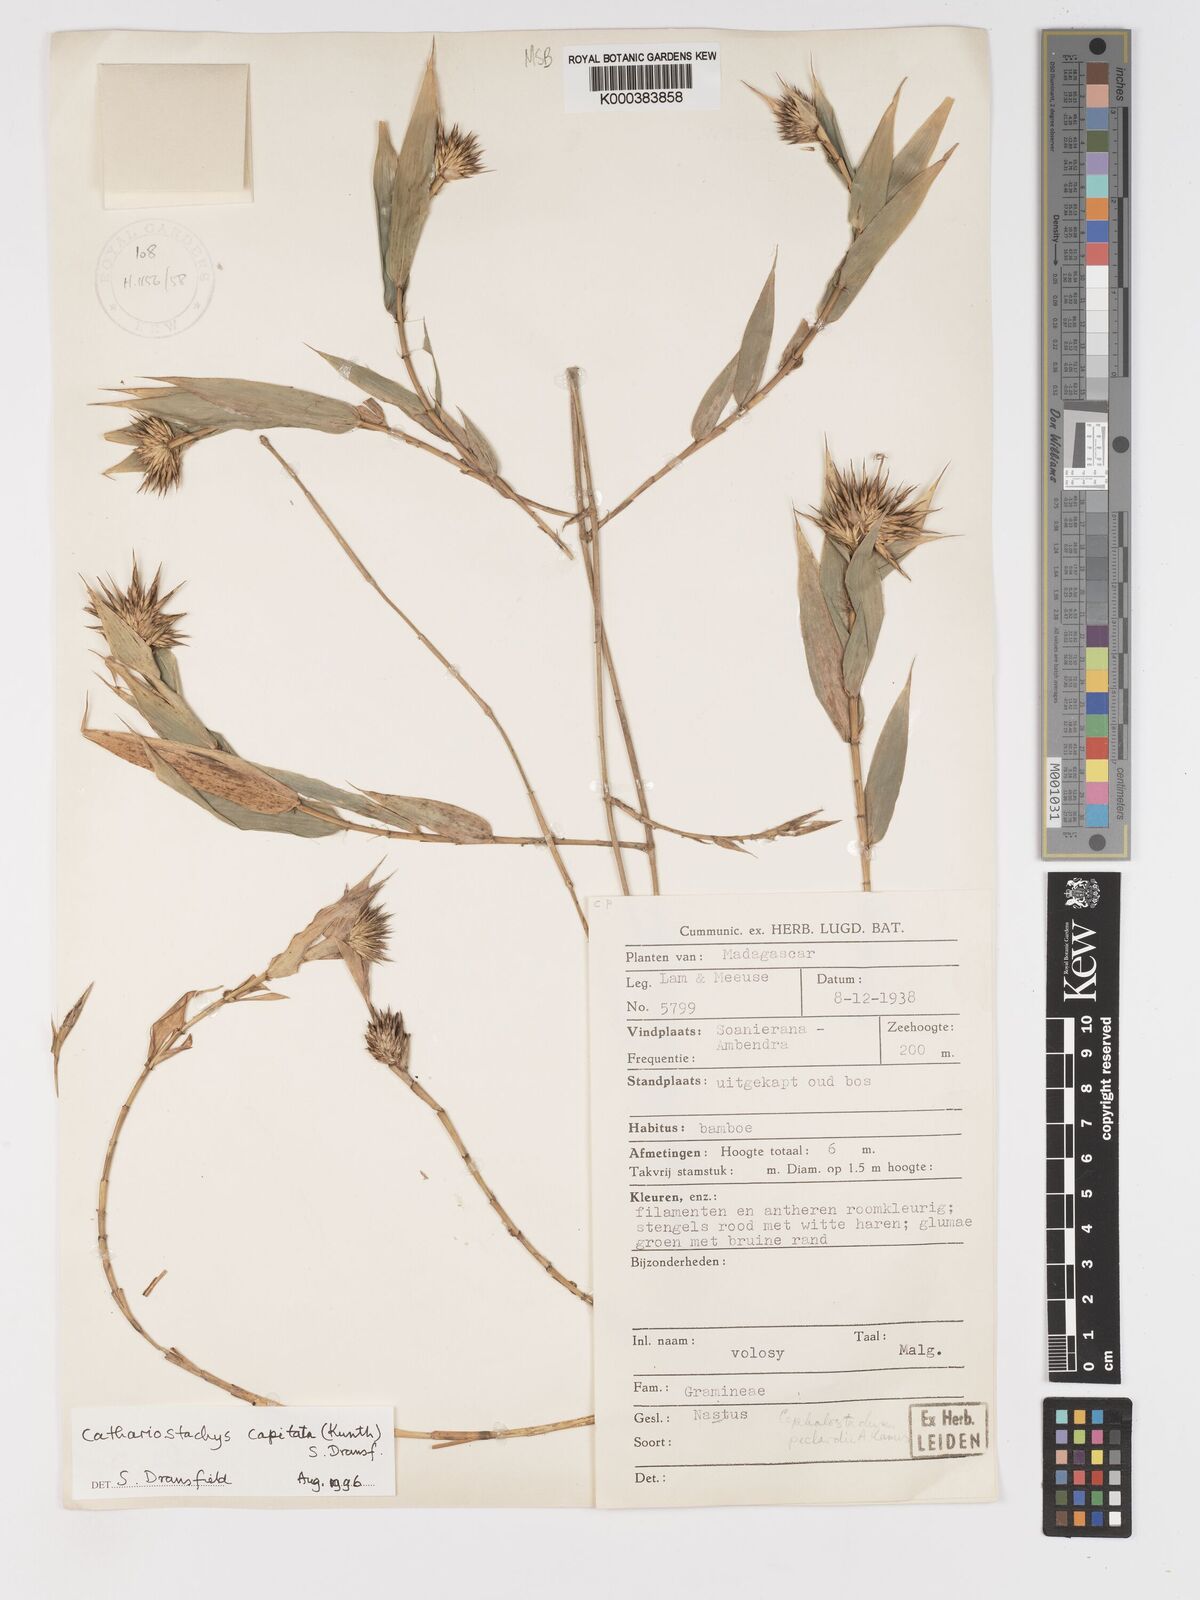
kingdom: Plantae
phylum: Tracheophyta
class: Liliopsida
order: Poales
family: Poaceae
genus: Cathariostachys
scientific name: Cathariostachys capitata
